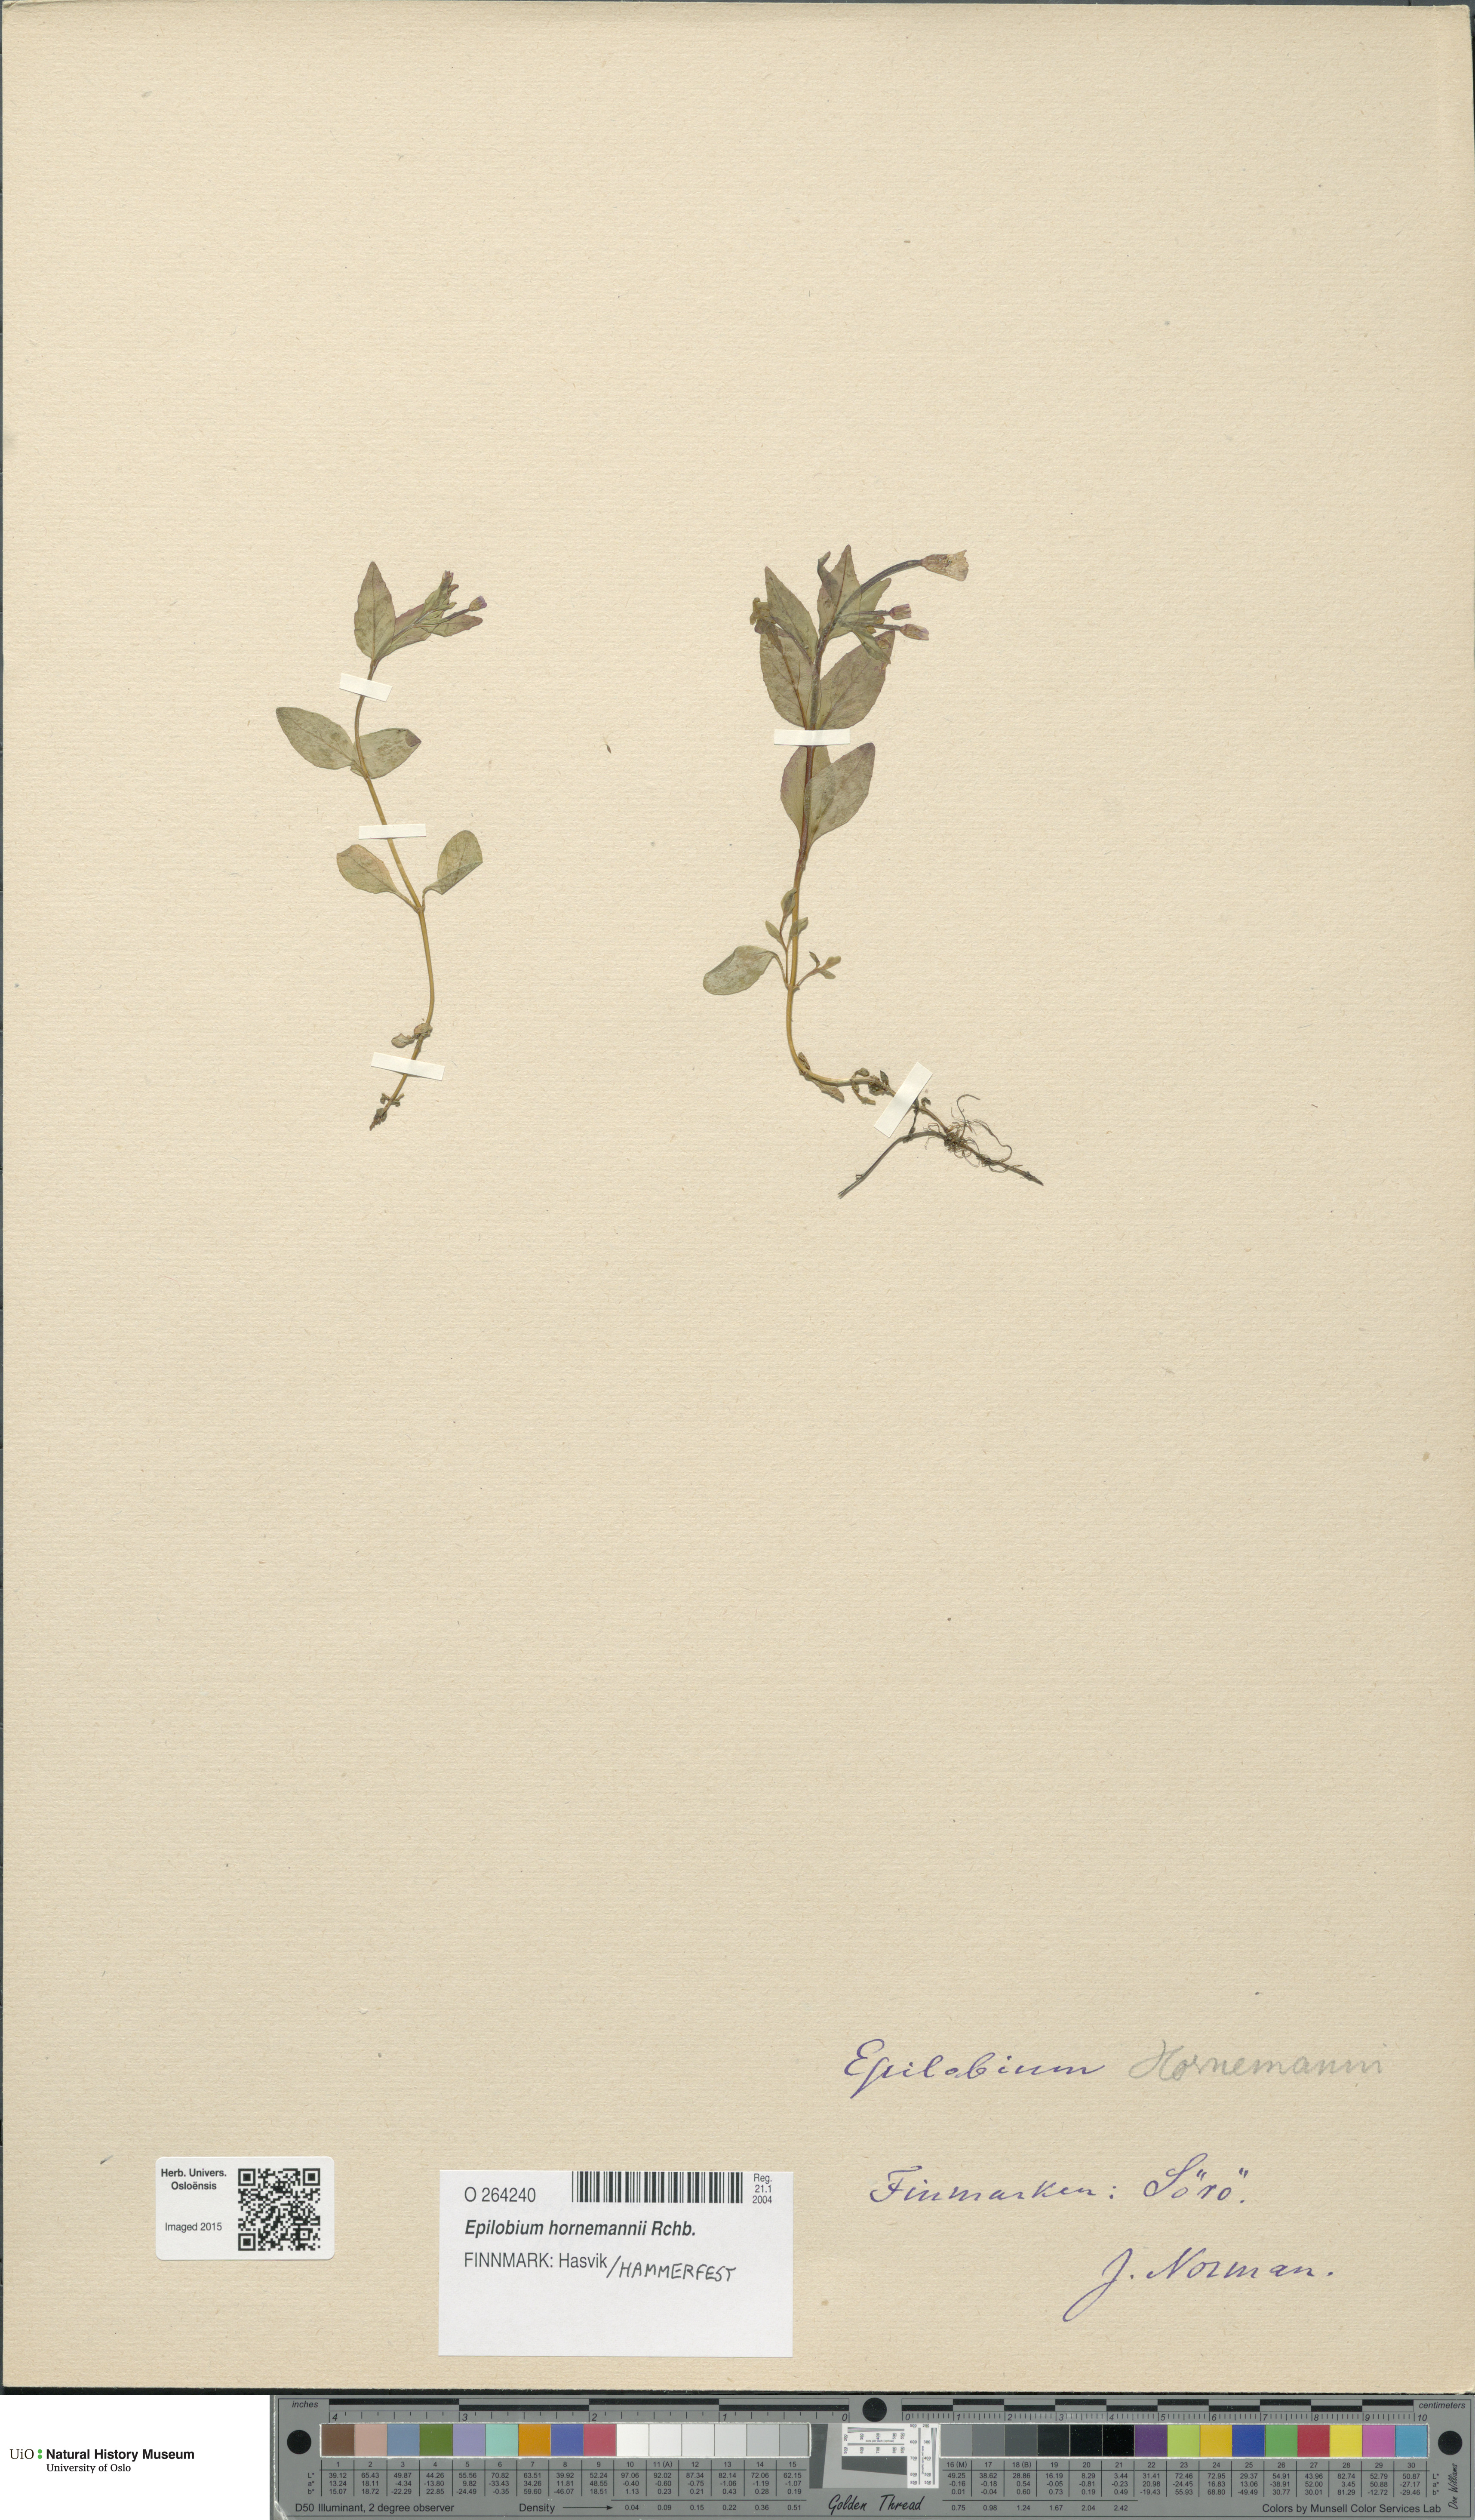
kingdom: Plantae
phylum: Tracheophyta
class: Magnoliopsida
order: Myrtales
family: Onagraceae
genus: Epilobium
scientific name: Epilobium hornemannii
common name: Hornemann's willowherb
